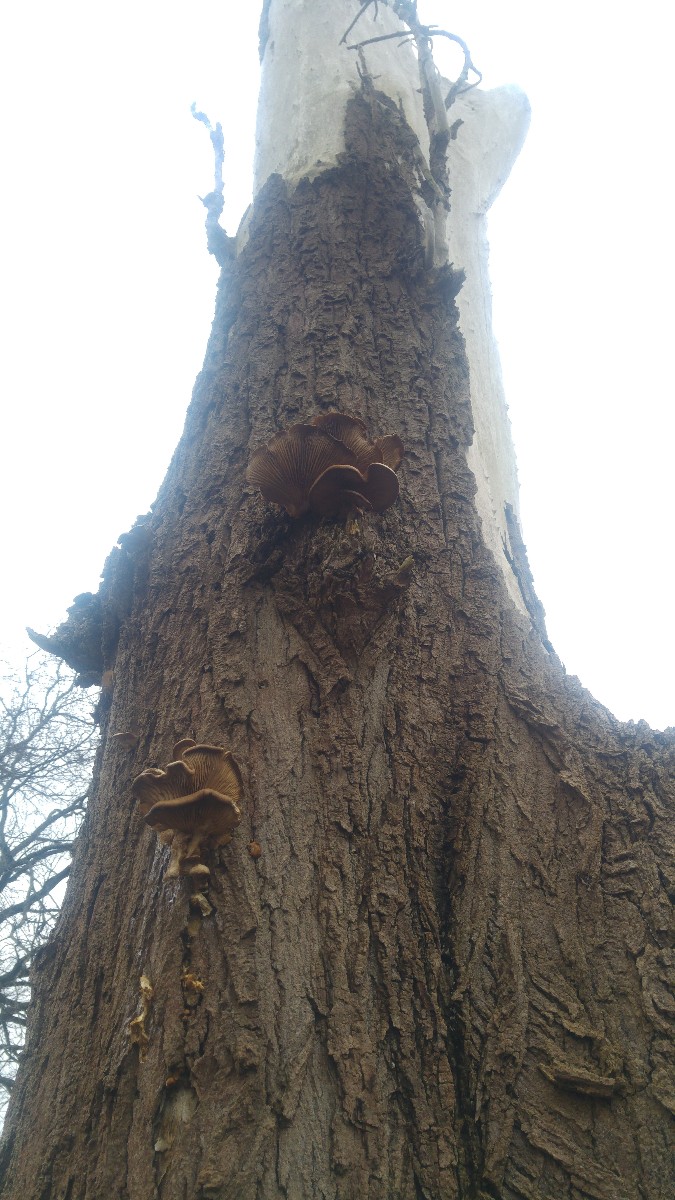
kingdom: Fungi
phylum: Basidiomycota
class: Agaricomycetes
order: Agaricales
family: Pleurotaceae
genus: Pleurotus
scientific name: Pleurotus ostreatus
